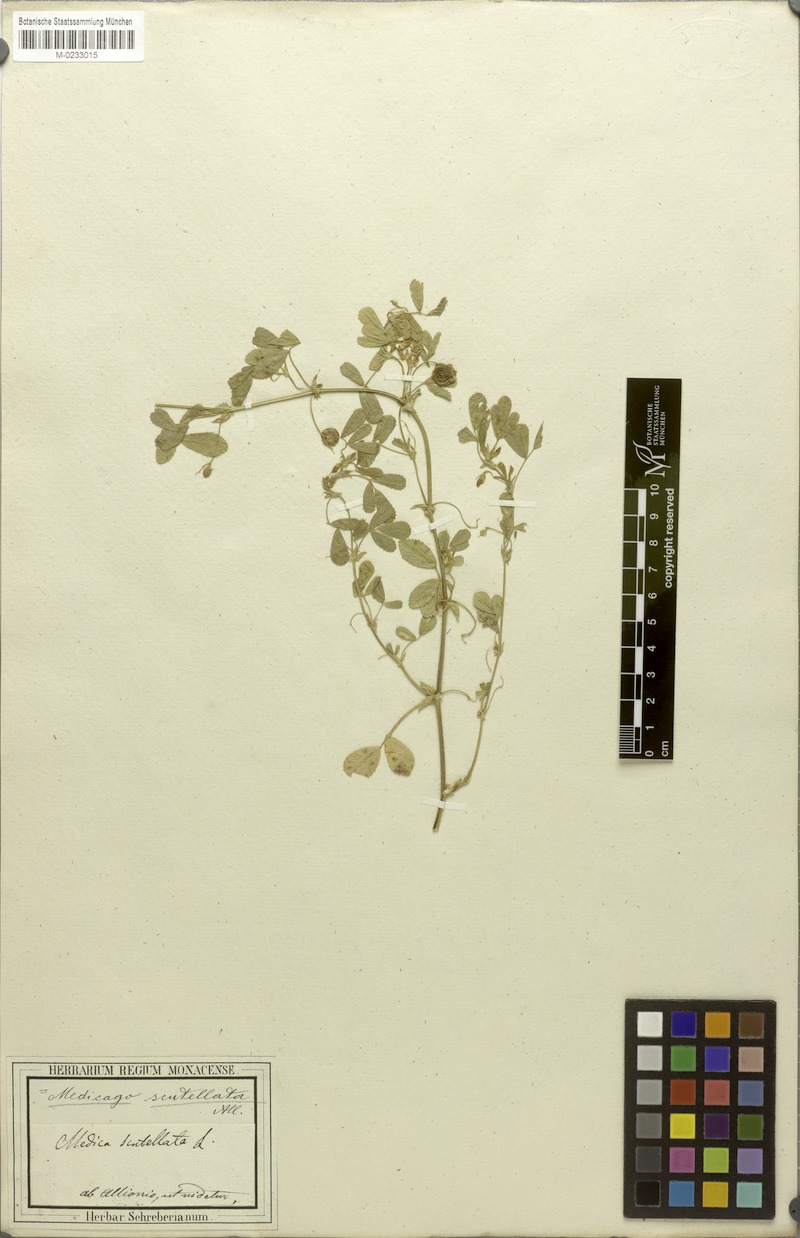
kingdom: Plantae
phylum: Tracheophyta
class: Magnoliopsida
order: Fabales
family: Fabaceae
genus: Medicago
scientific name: Medicago scutellata
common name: Snail medick
